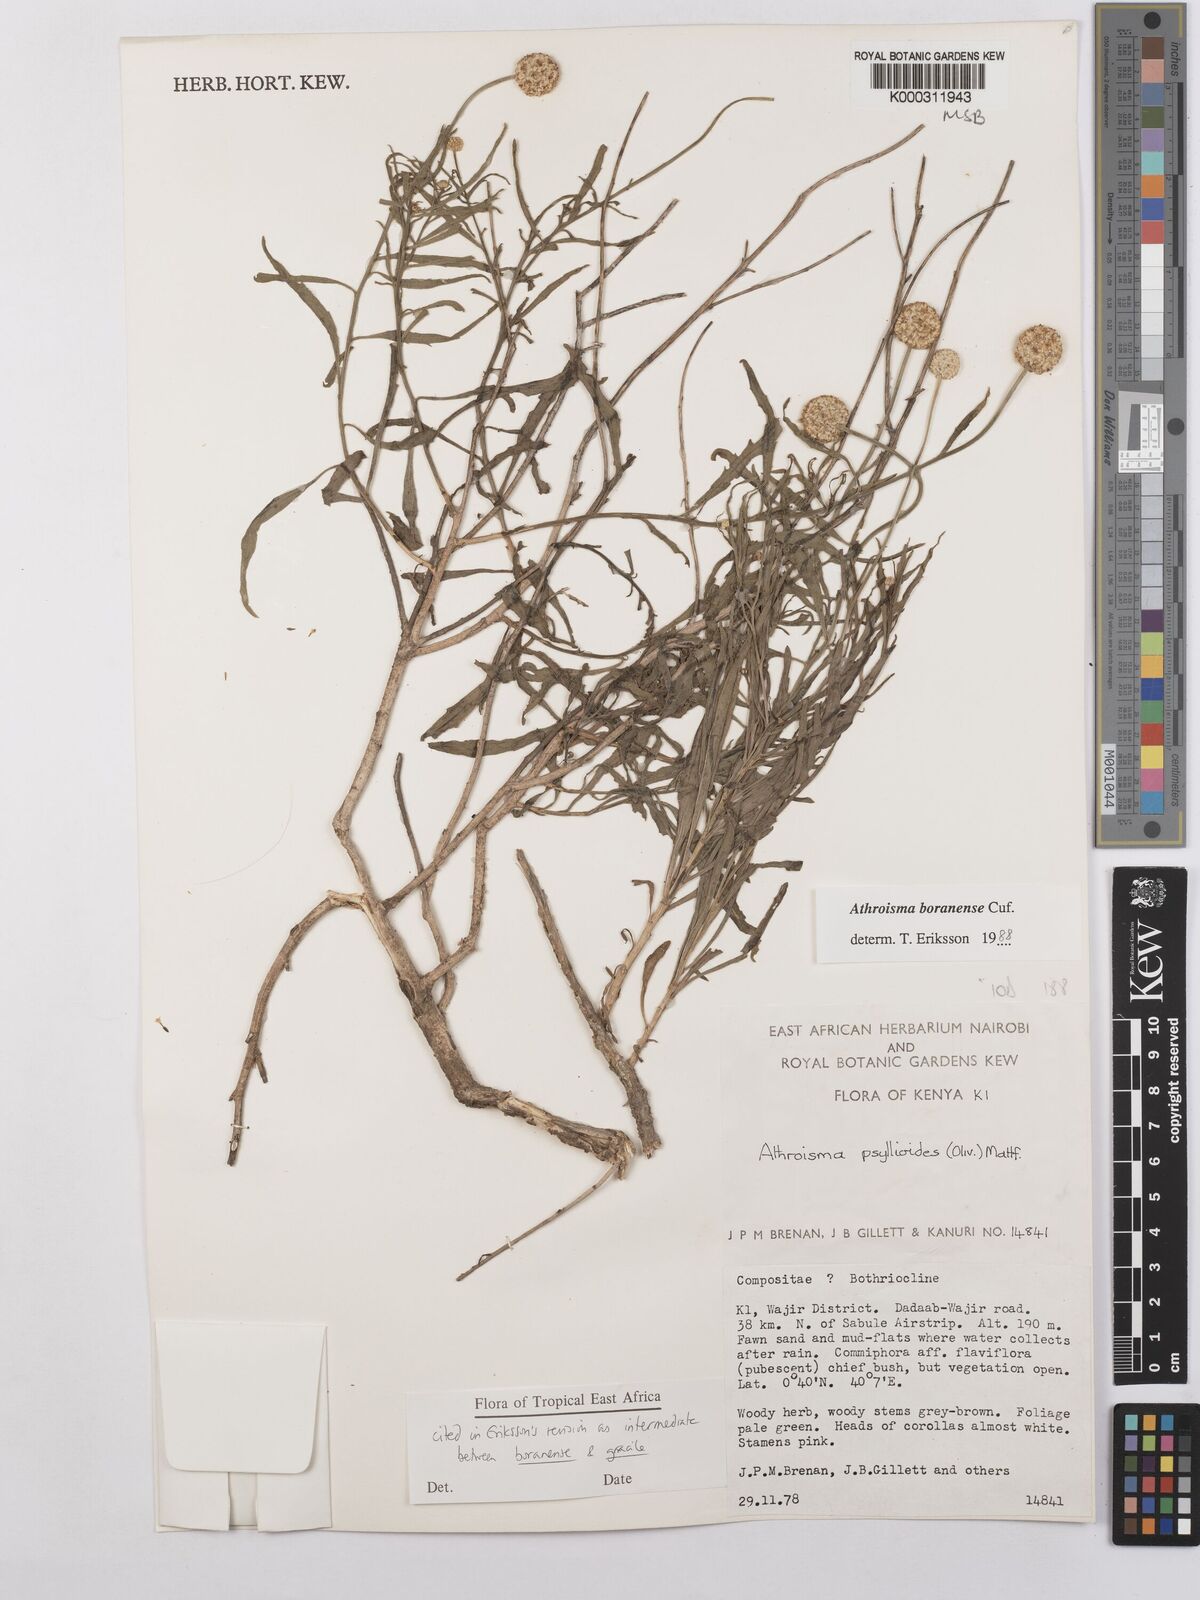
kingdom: Plantae
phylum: Tracheophyta
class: Magnoliopsida
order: Asterales
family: Asteraceae
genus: Athroisma
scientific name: Athroisma
